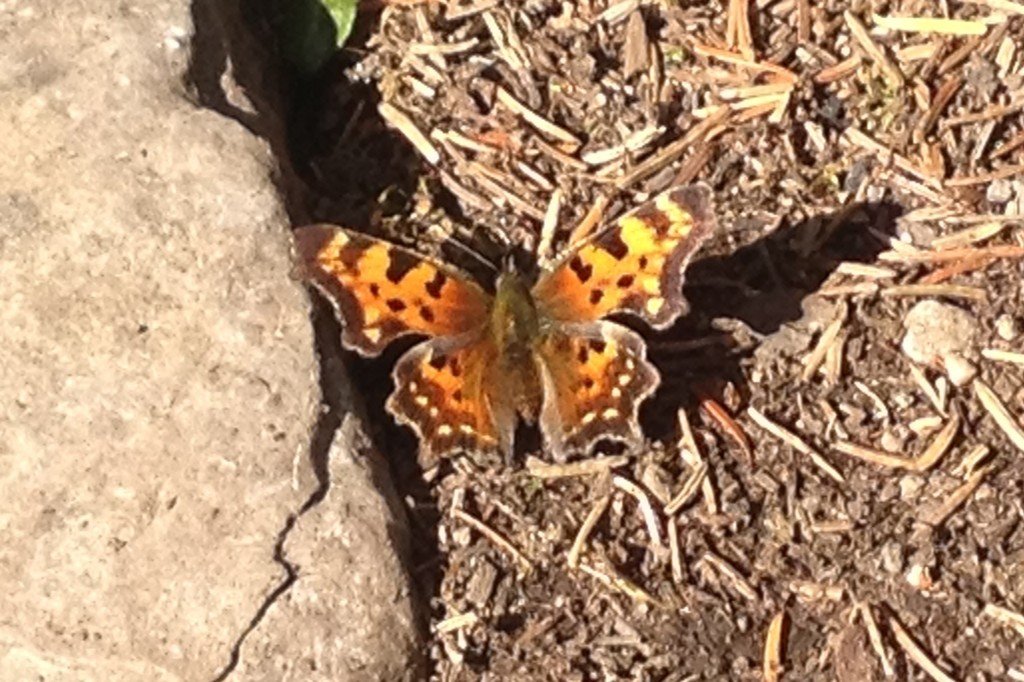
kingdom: Animalia
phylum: Arthropoda
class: Insecta
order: Lepidoptera
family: Nymphalidae
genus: Polygonia
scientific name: Polygonia faunus
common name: Green Comma
